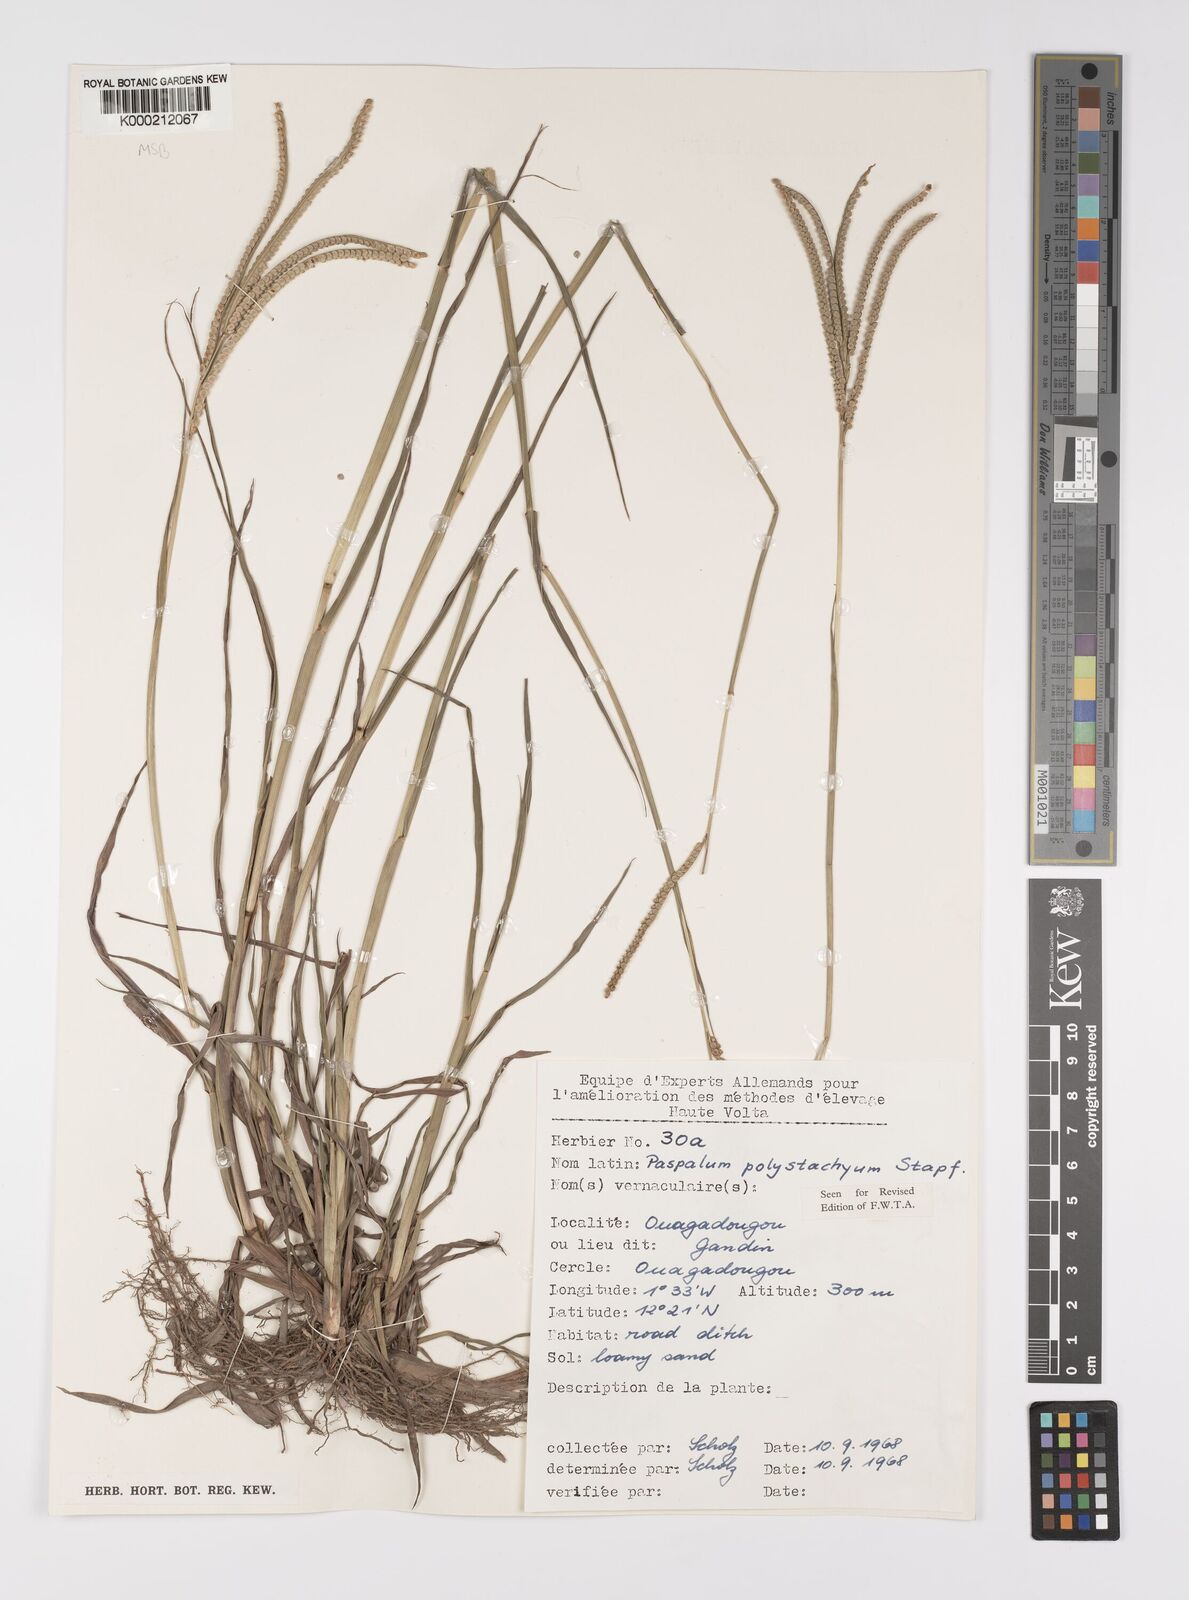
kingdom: Plantae
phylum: Tracheophyta
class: Liliopsida
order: Poales
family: Poaceae
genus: Paspalum
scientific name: Paspalum scrobiculatum
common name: Kodo millet
